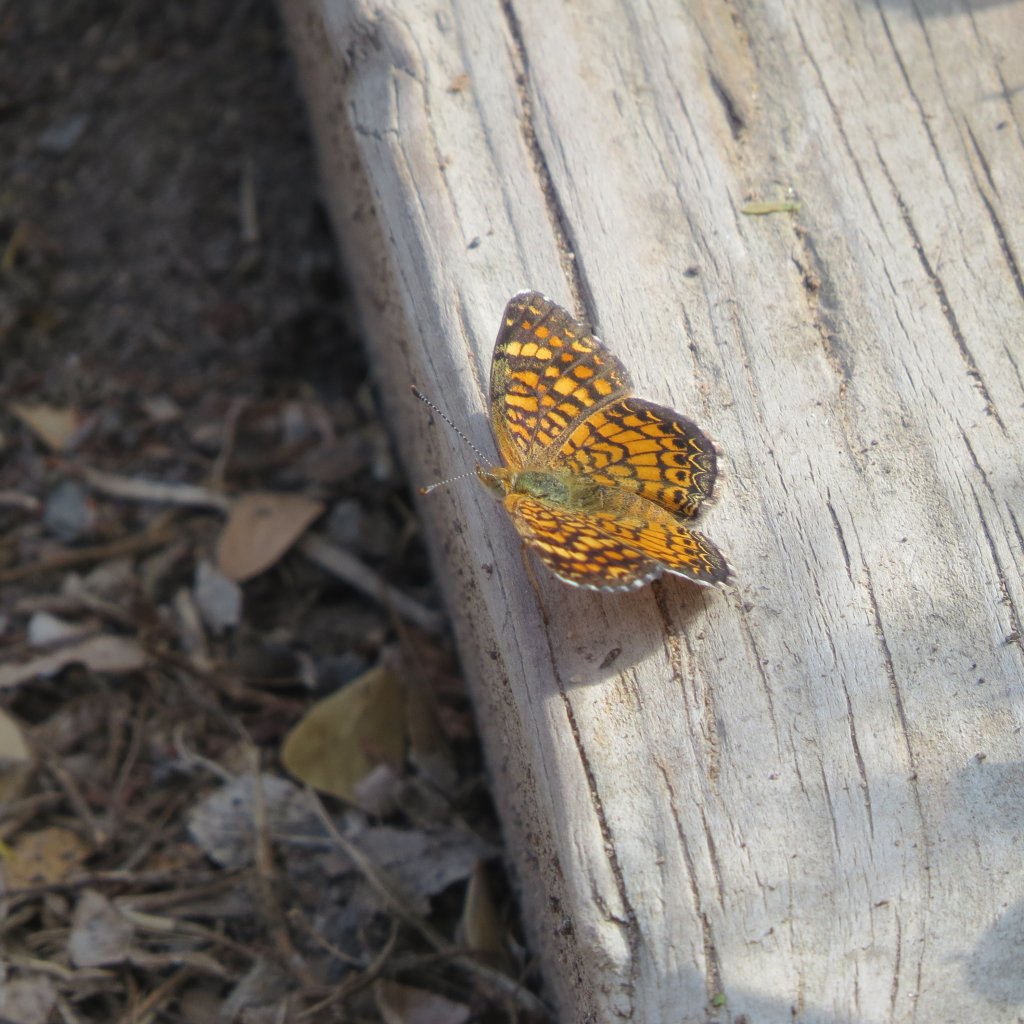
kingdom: Animalia
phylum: Arthropoda
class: Insecta
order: Lepidoptera
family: Nymphalidae
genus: Phyciodes
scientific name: Phyciodes vesta
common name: Vesta Crescent
